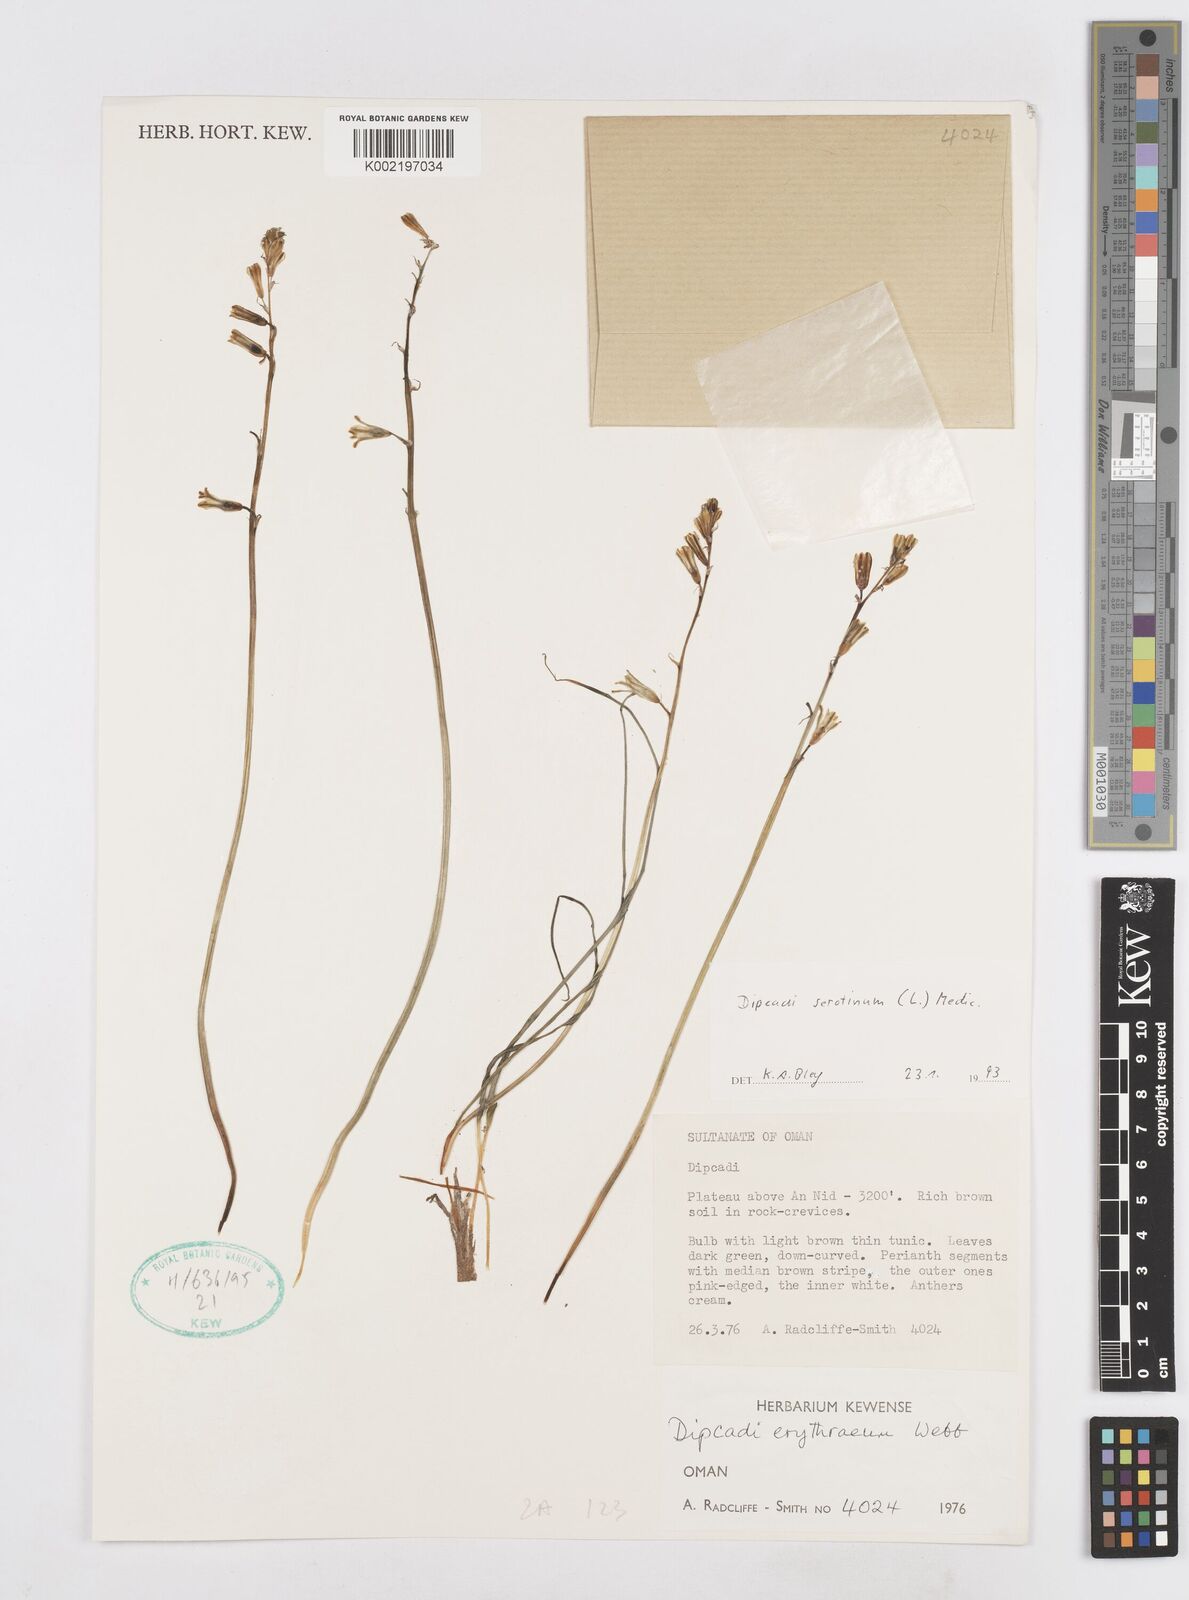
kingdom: Plantae
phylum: Tracheophyta
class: Liliopsida
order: Asparagales
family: Asparagaceae
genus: Dipcadi
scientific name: Dipcadi serotinum
